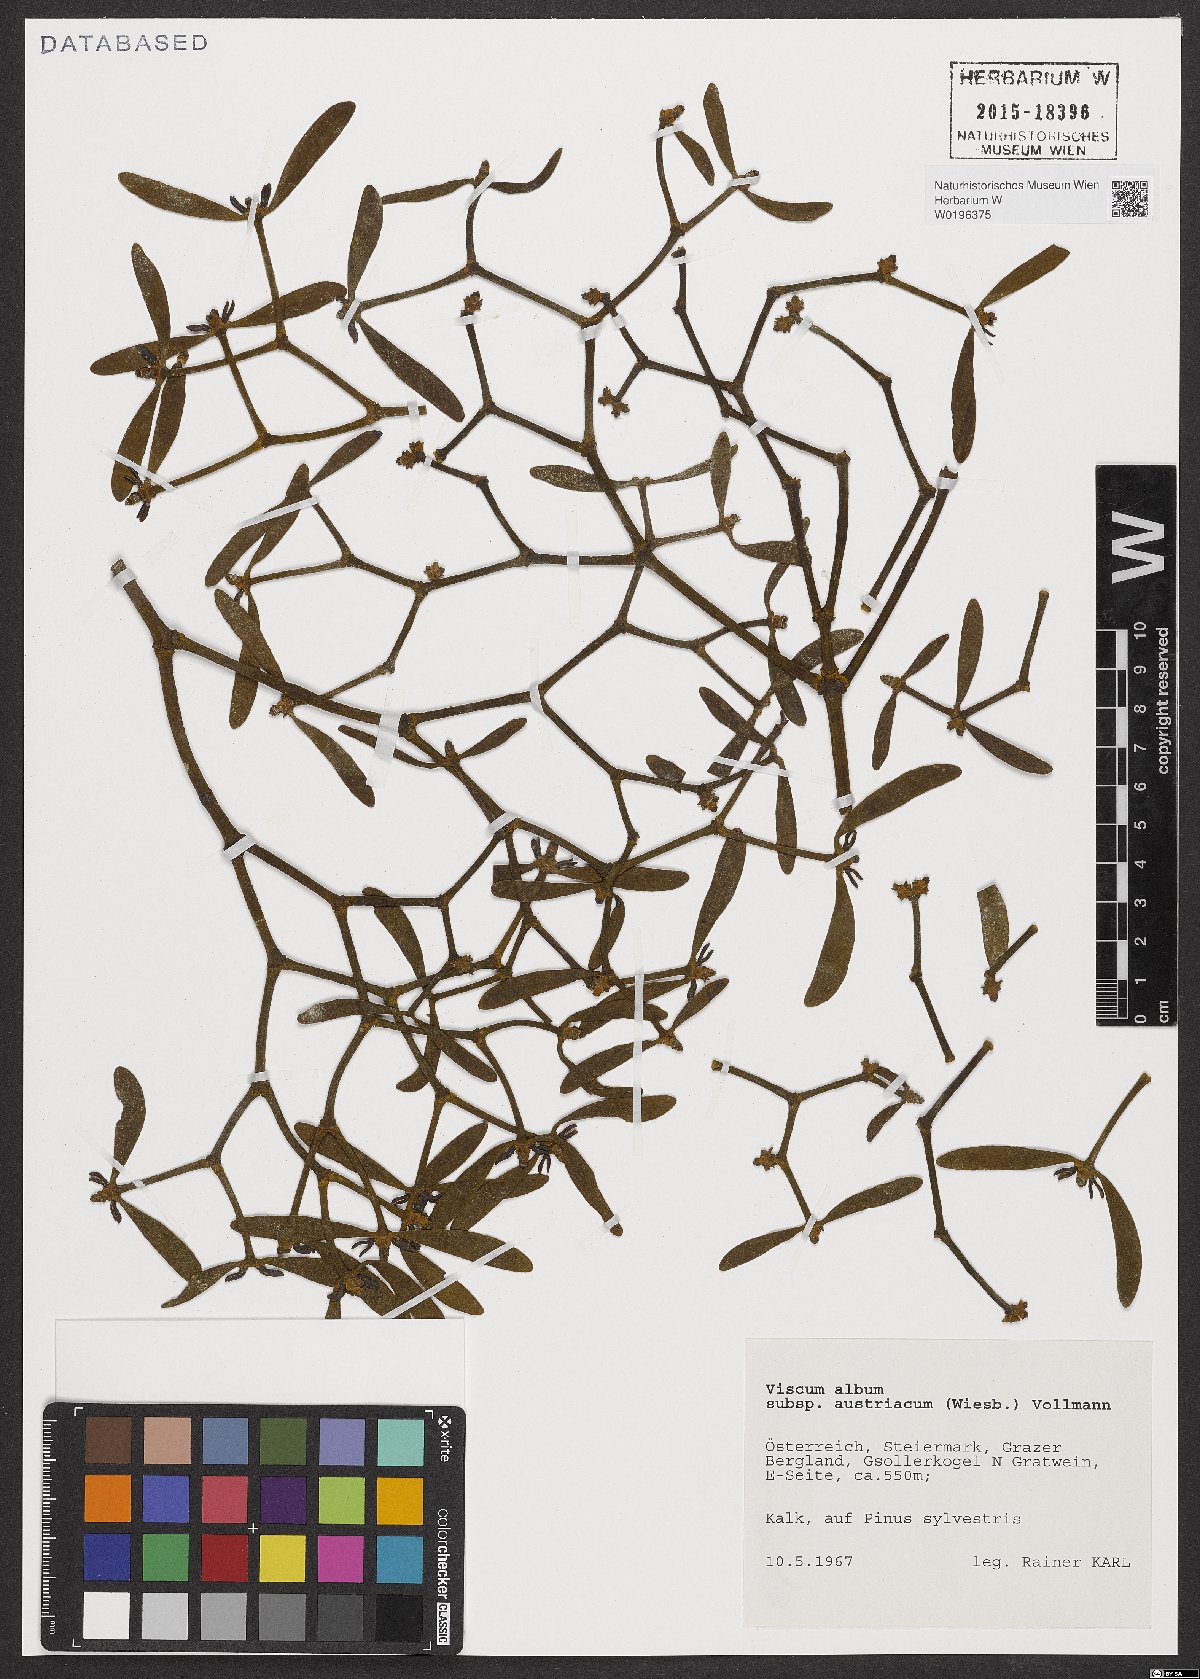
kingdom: Plantae
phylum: Tracheophyta
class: Magnoliopsida
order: Santalales
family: Viscaceae
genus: Viscum
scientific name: Viscum laxum
